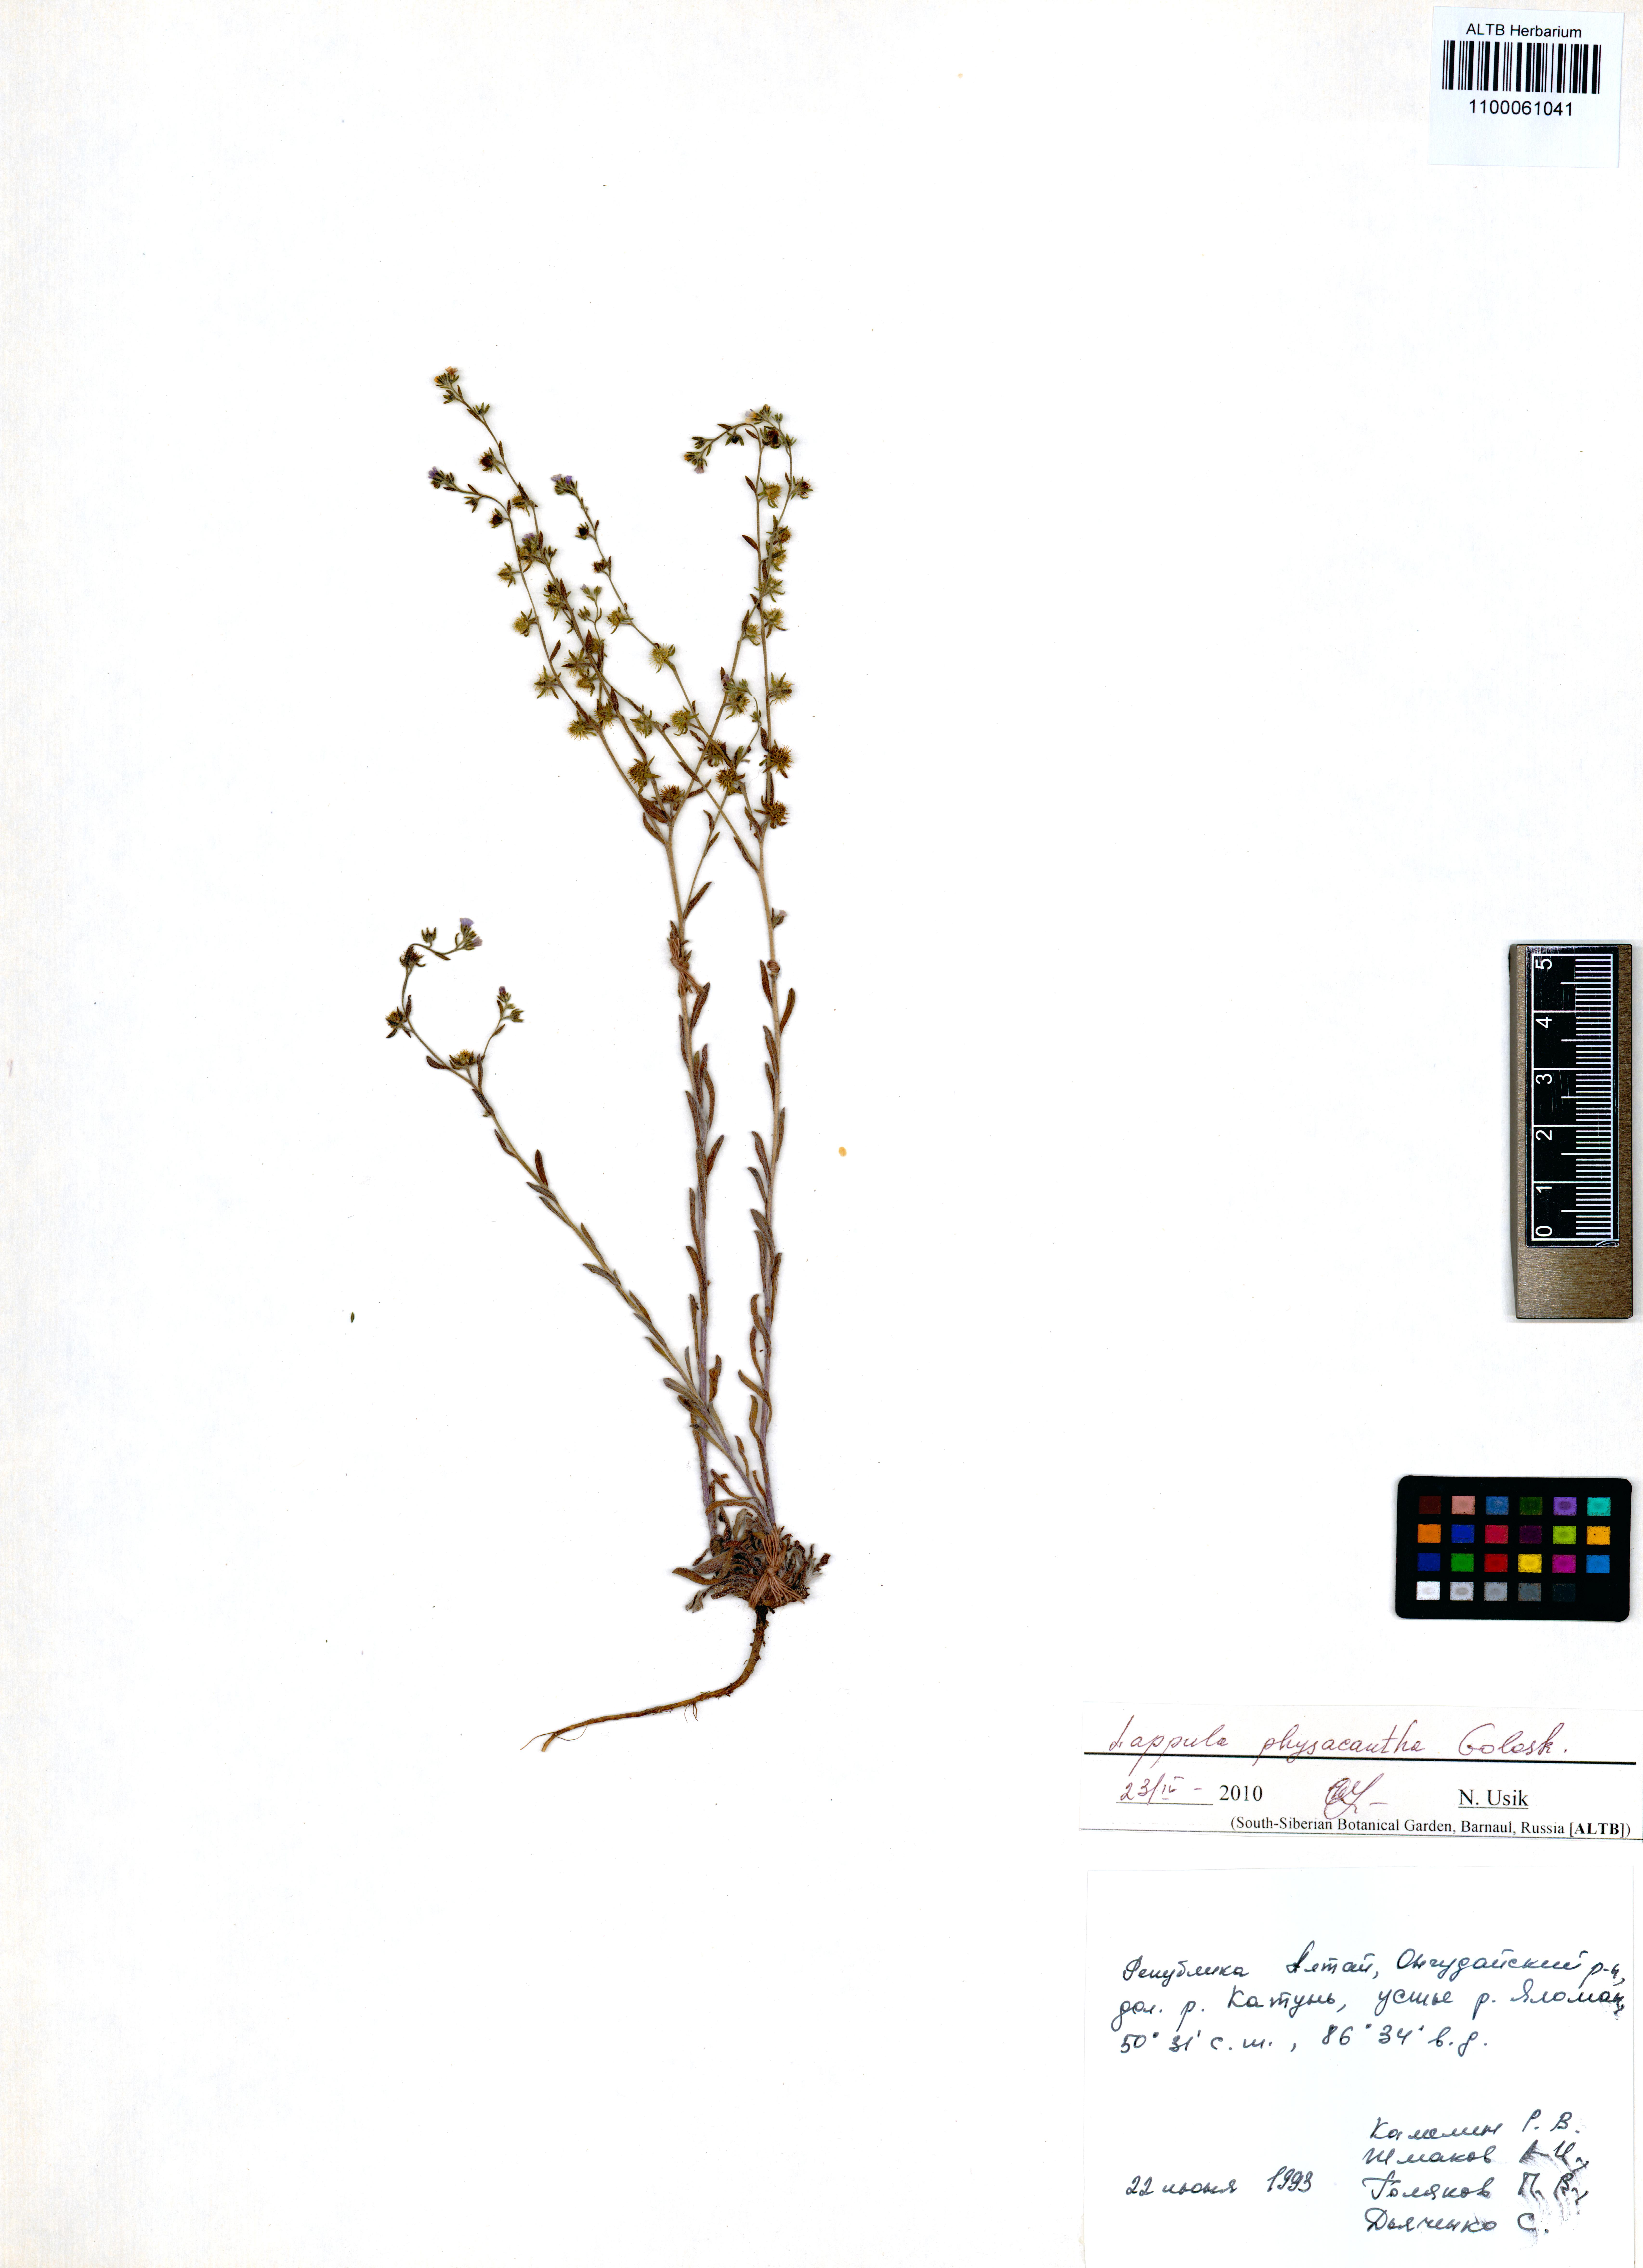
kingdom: Plantae
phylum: Tracheophyta
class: Magnoliopsida
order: Boraginales
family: Boraginaceae
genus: Lappula
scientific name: Lappula physacantha
